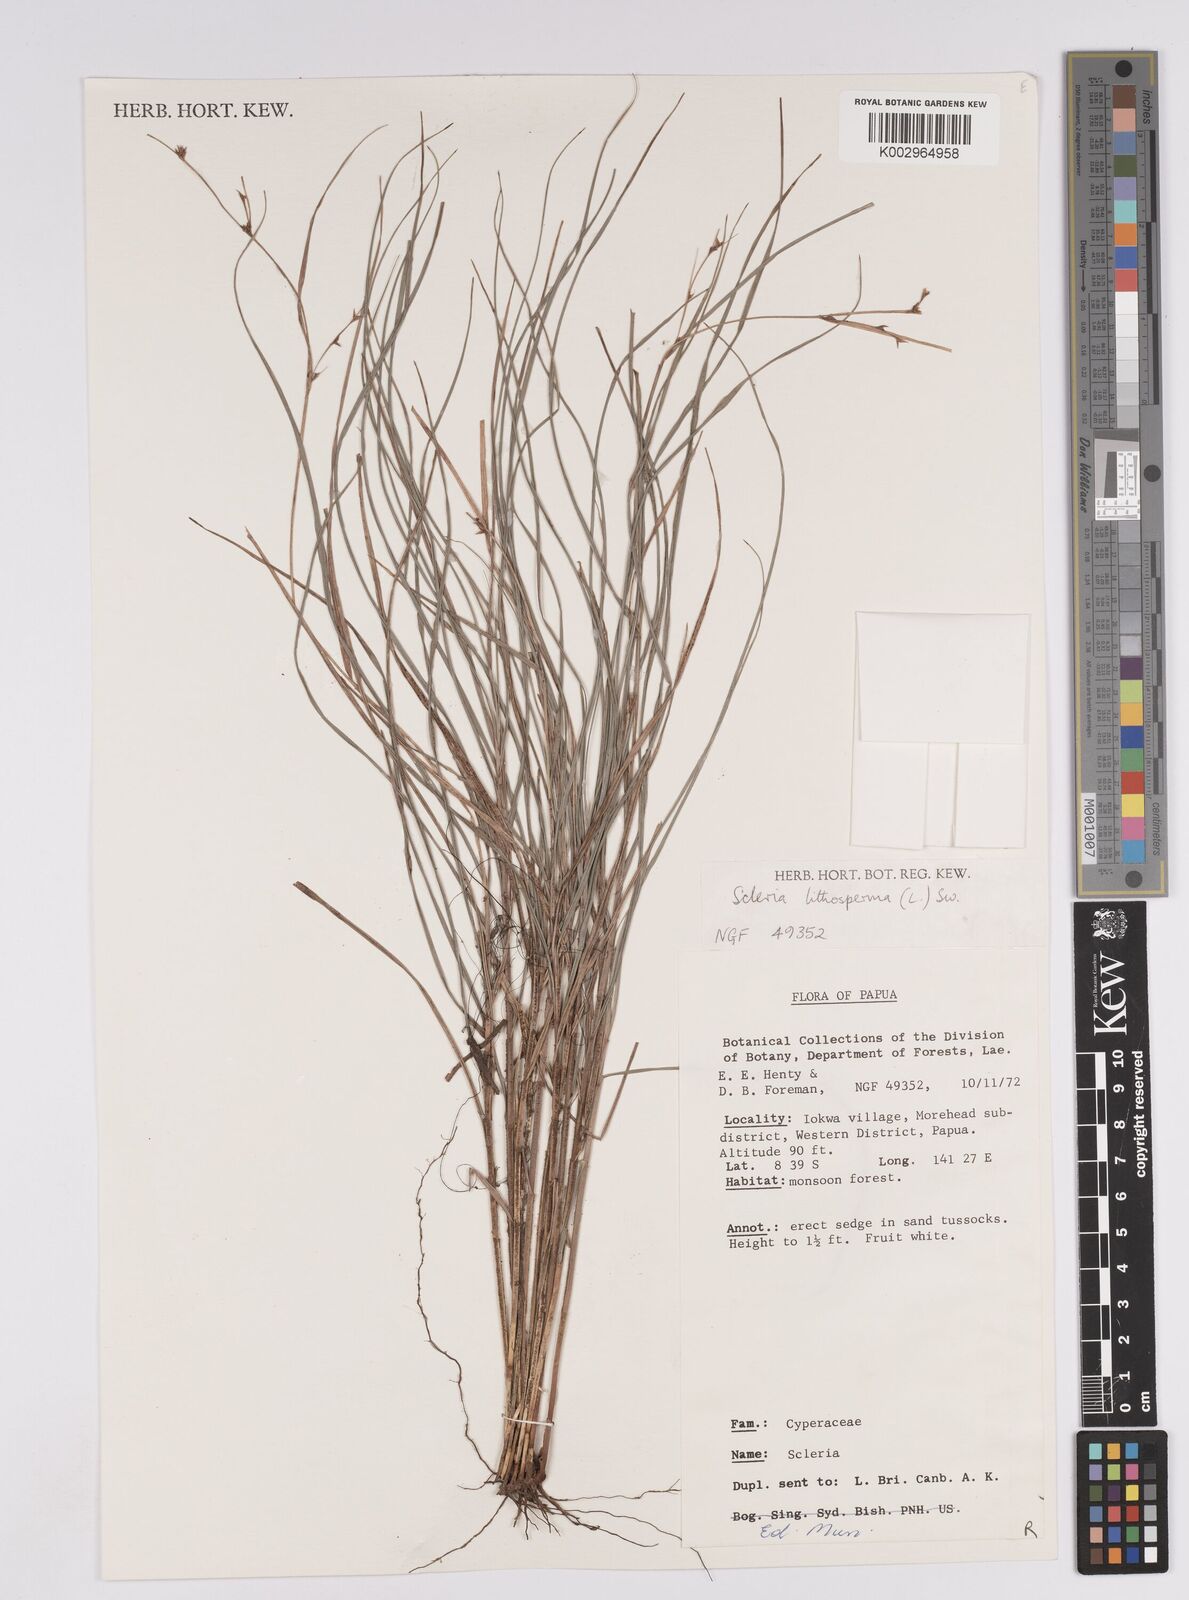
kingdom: Plantae
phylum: Tracheophyta
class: Liliopsida
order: Poales
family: Cyperaceae
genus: Scleria
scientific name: Scleria lithosperma
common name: Florida keys nut-rush
